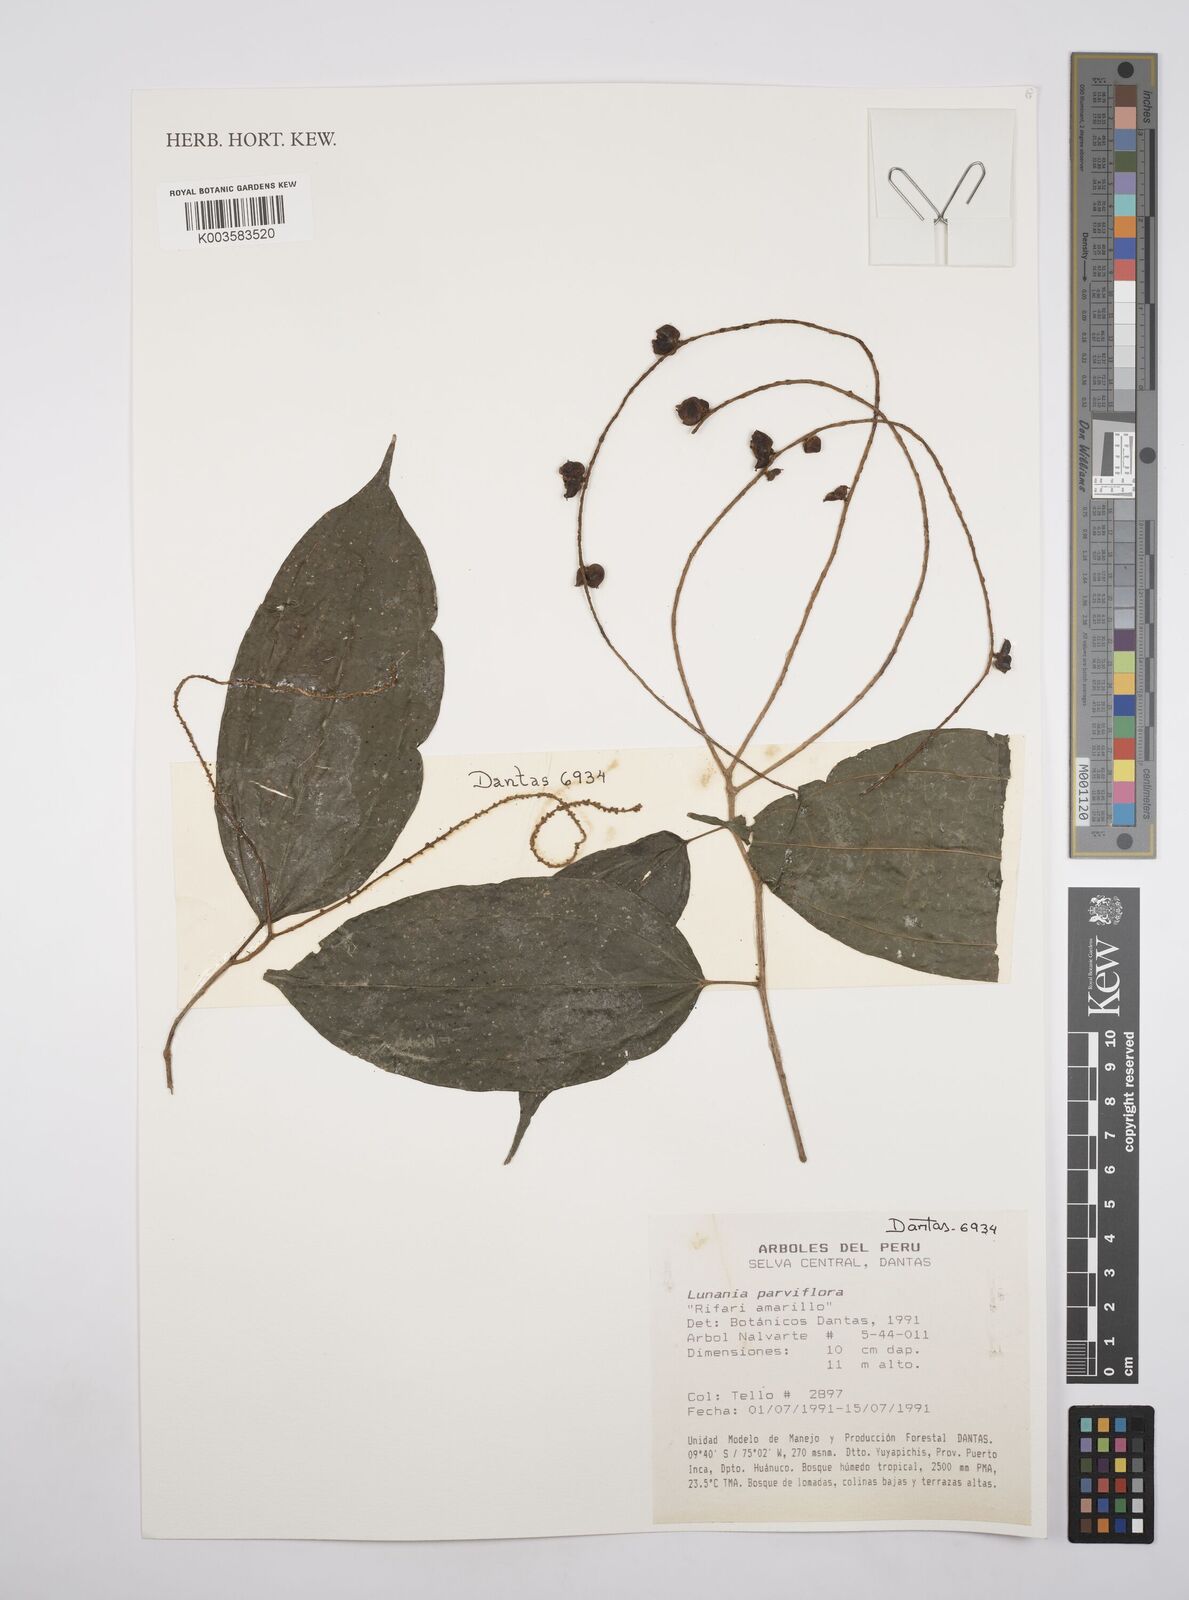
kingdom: Plantae
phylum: Tracheophyta
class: Magnoliopsida
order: Malpighiales
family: Salicaceae
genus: Lunania
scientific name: Lunania parviflora
